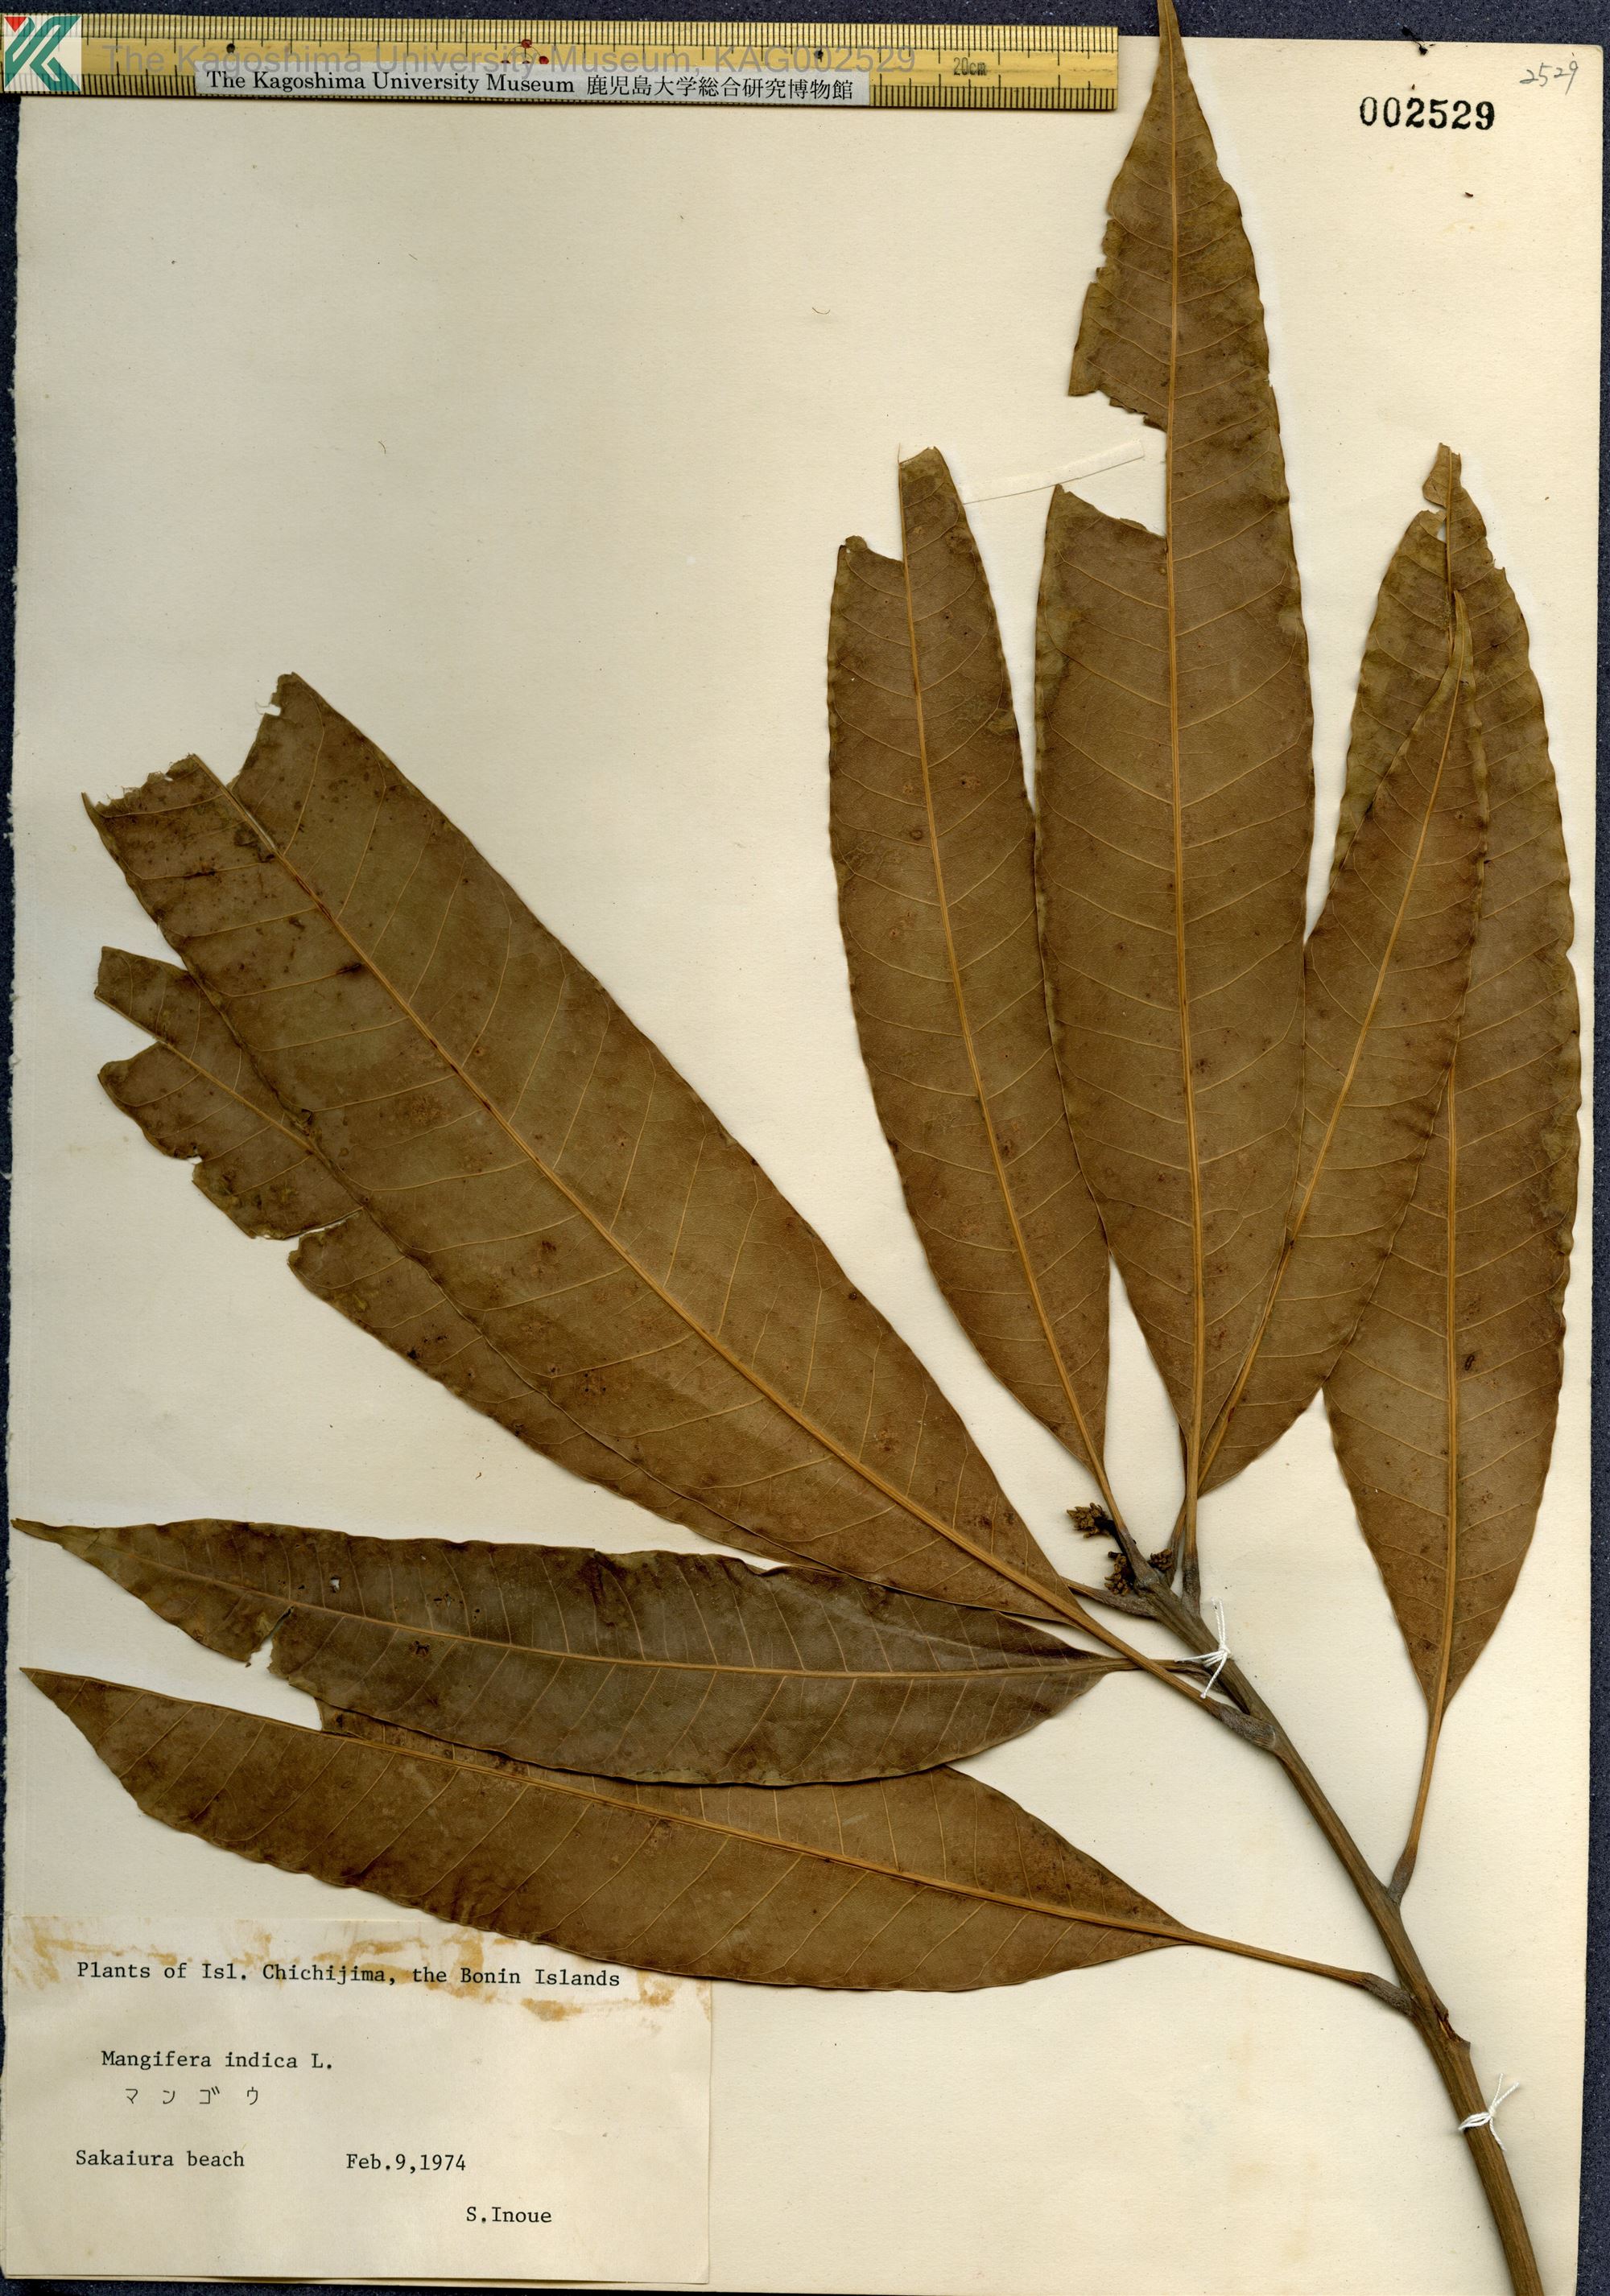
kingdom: Plantae
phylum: Tracheophyta
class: Magnoliopsida
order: Sapindales
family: Anacardiaceae
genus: Mangifera
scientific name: Mangifera indica
